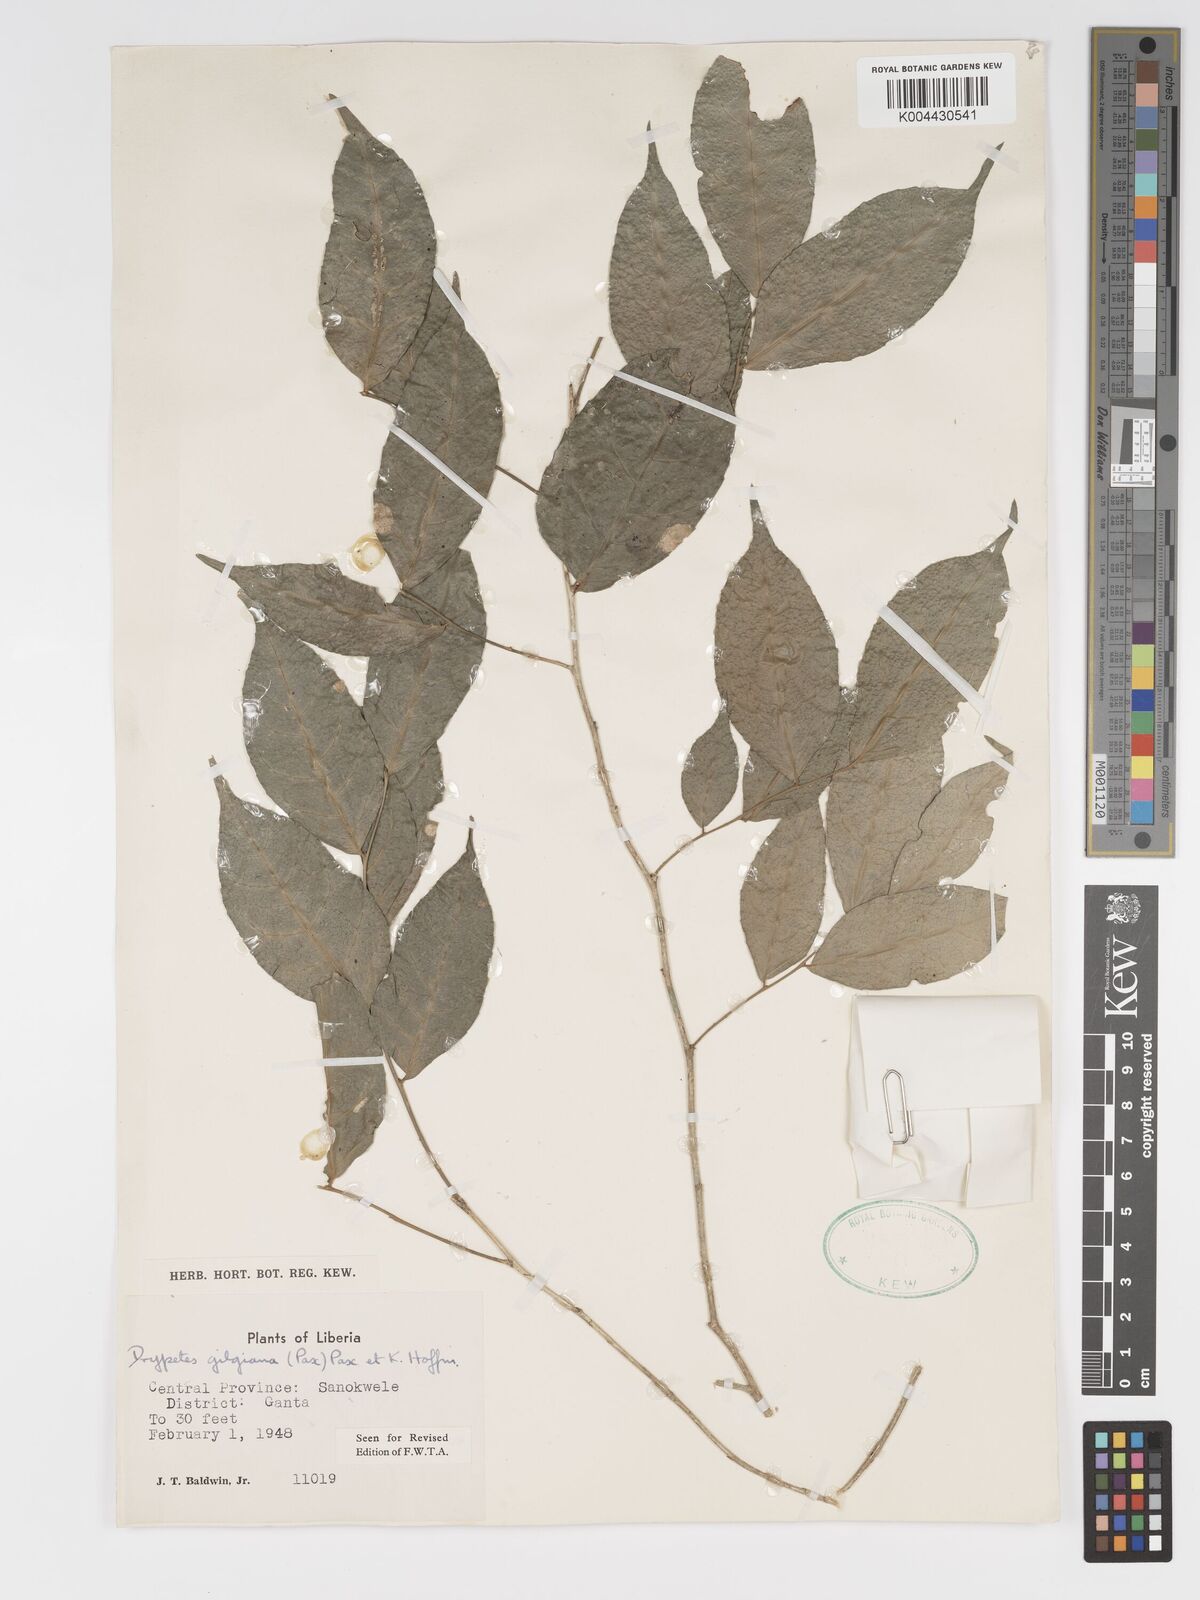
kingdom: Plantae
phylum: Tracheophyta
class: Magnoliopsida
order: Malpighiales
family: Putranjivaceae
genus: Drypetes
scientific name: Drypetes gilgiana
